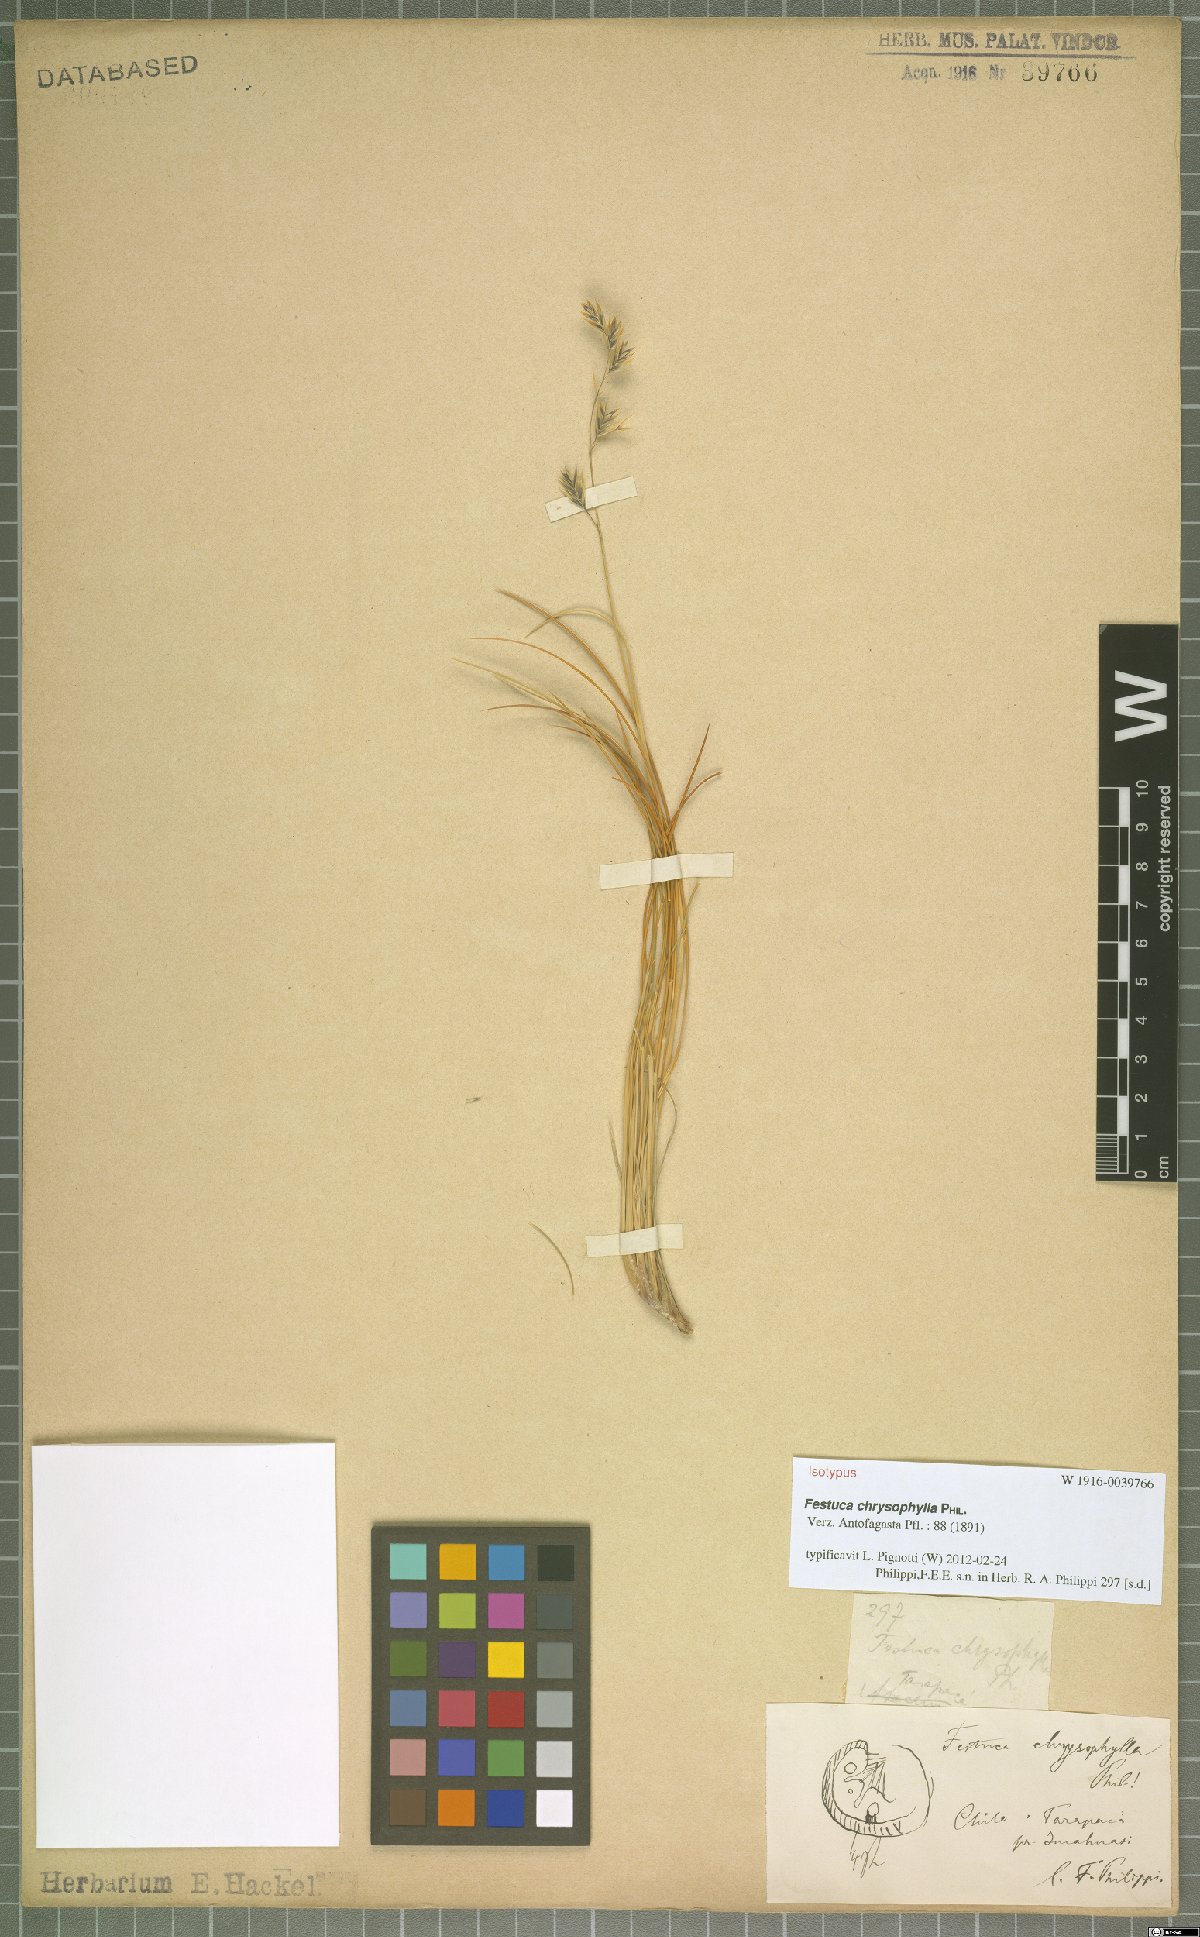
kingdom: Plantae
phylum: Tracheophyta
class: Liliopsida
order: Poales
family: Poaceae
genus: Festuca
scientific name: Festuca chrysophylla
